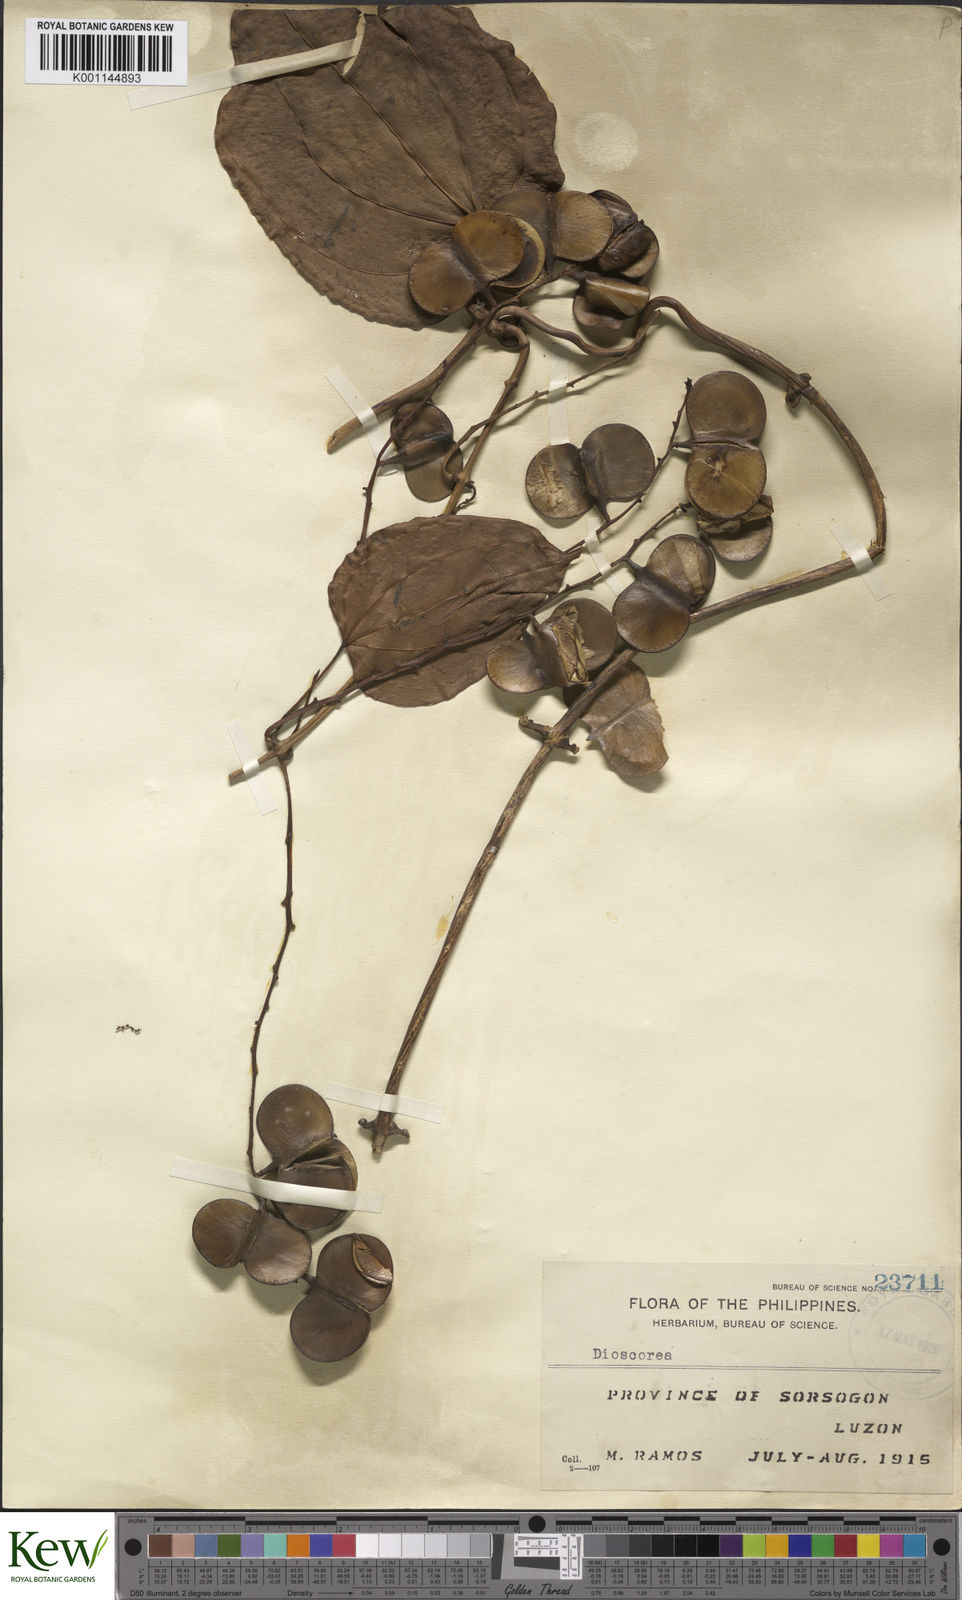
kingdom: Plantae
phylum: Tracheophyta
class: Liliopsida
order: Dioscoreales
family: Dioscoreaceae
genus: Dioscorea
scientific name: Dioscorea nummularia
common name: Pacific yam
